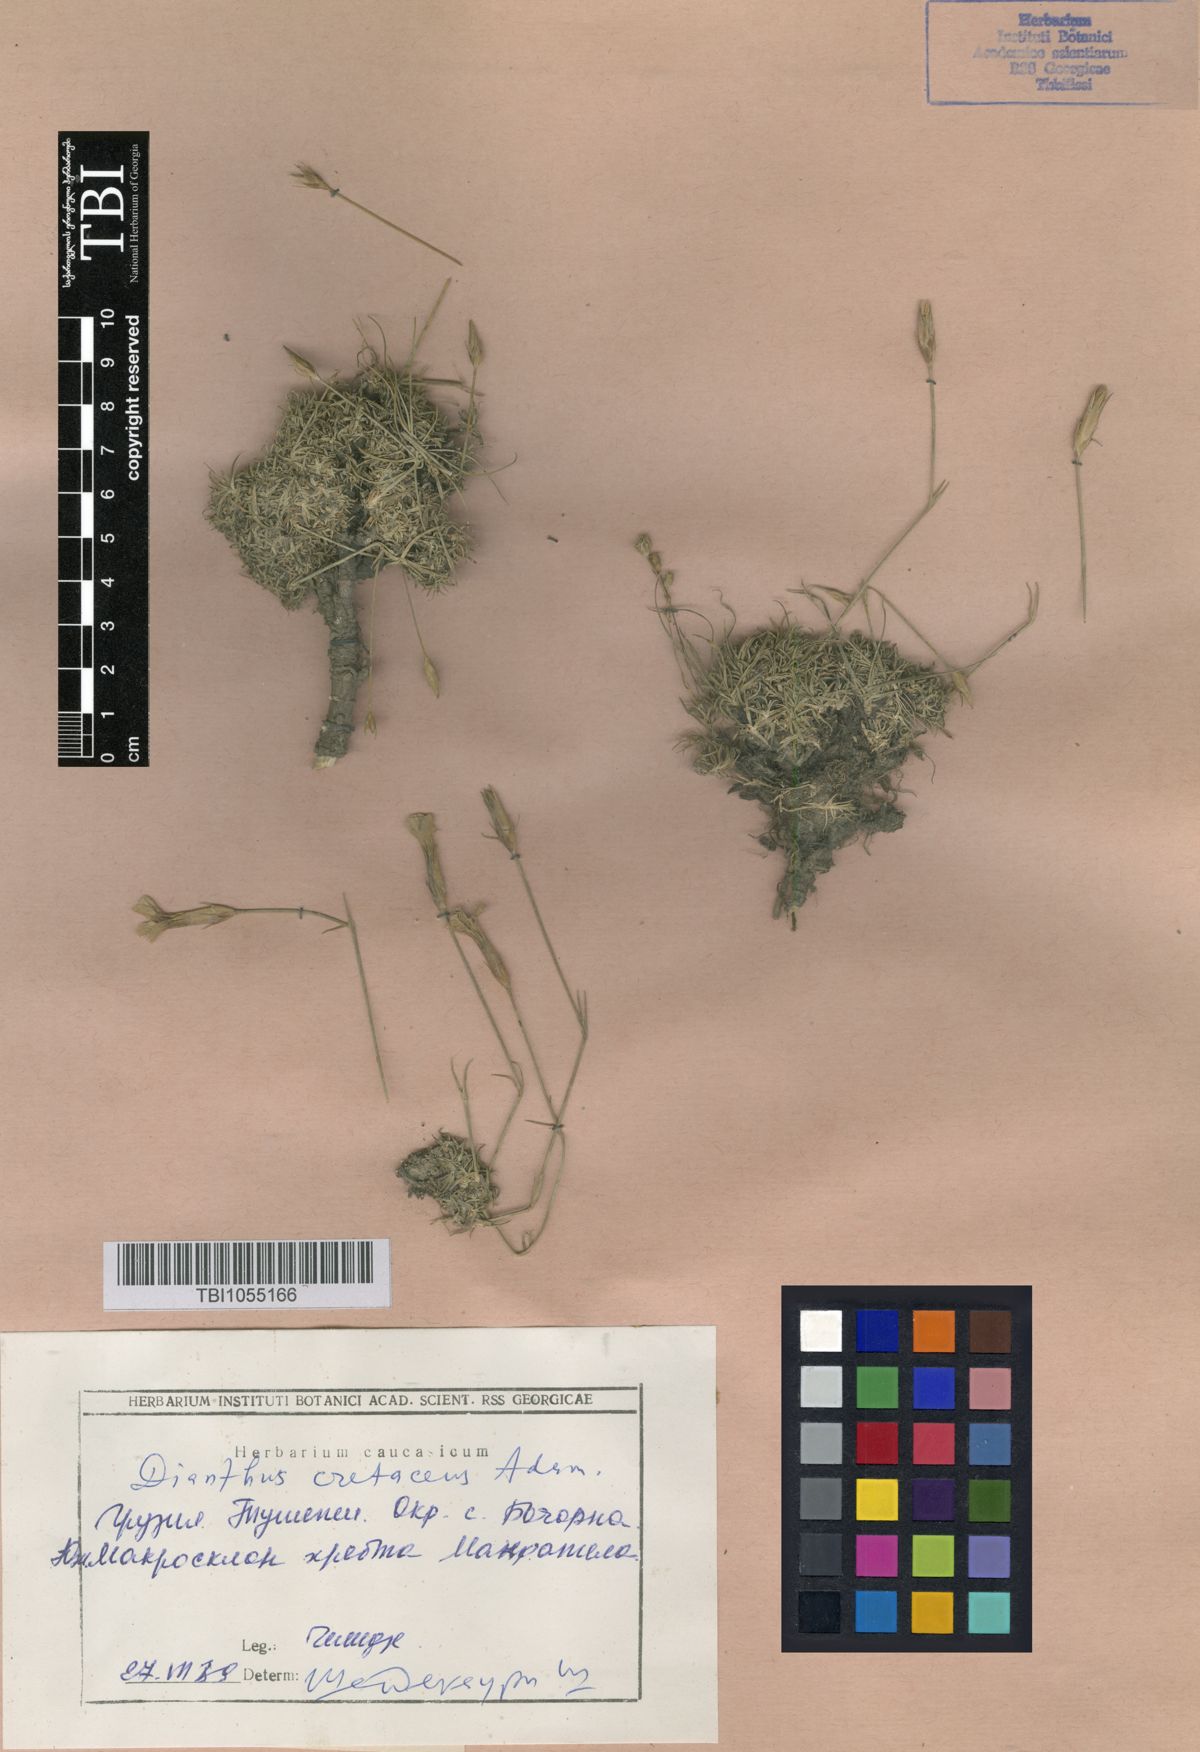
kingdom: Plantae
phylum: Tracheophyta
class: Magnoliopsida
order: Caryophyllales
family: Caryophyllaceae
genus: Dianthus
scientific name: Dianthus cretaceus
